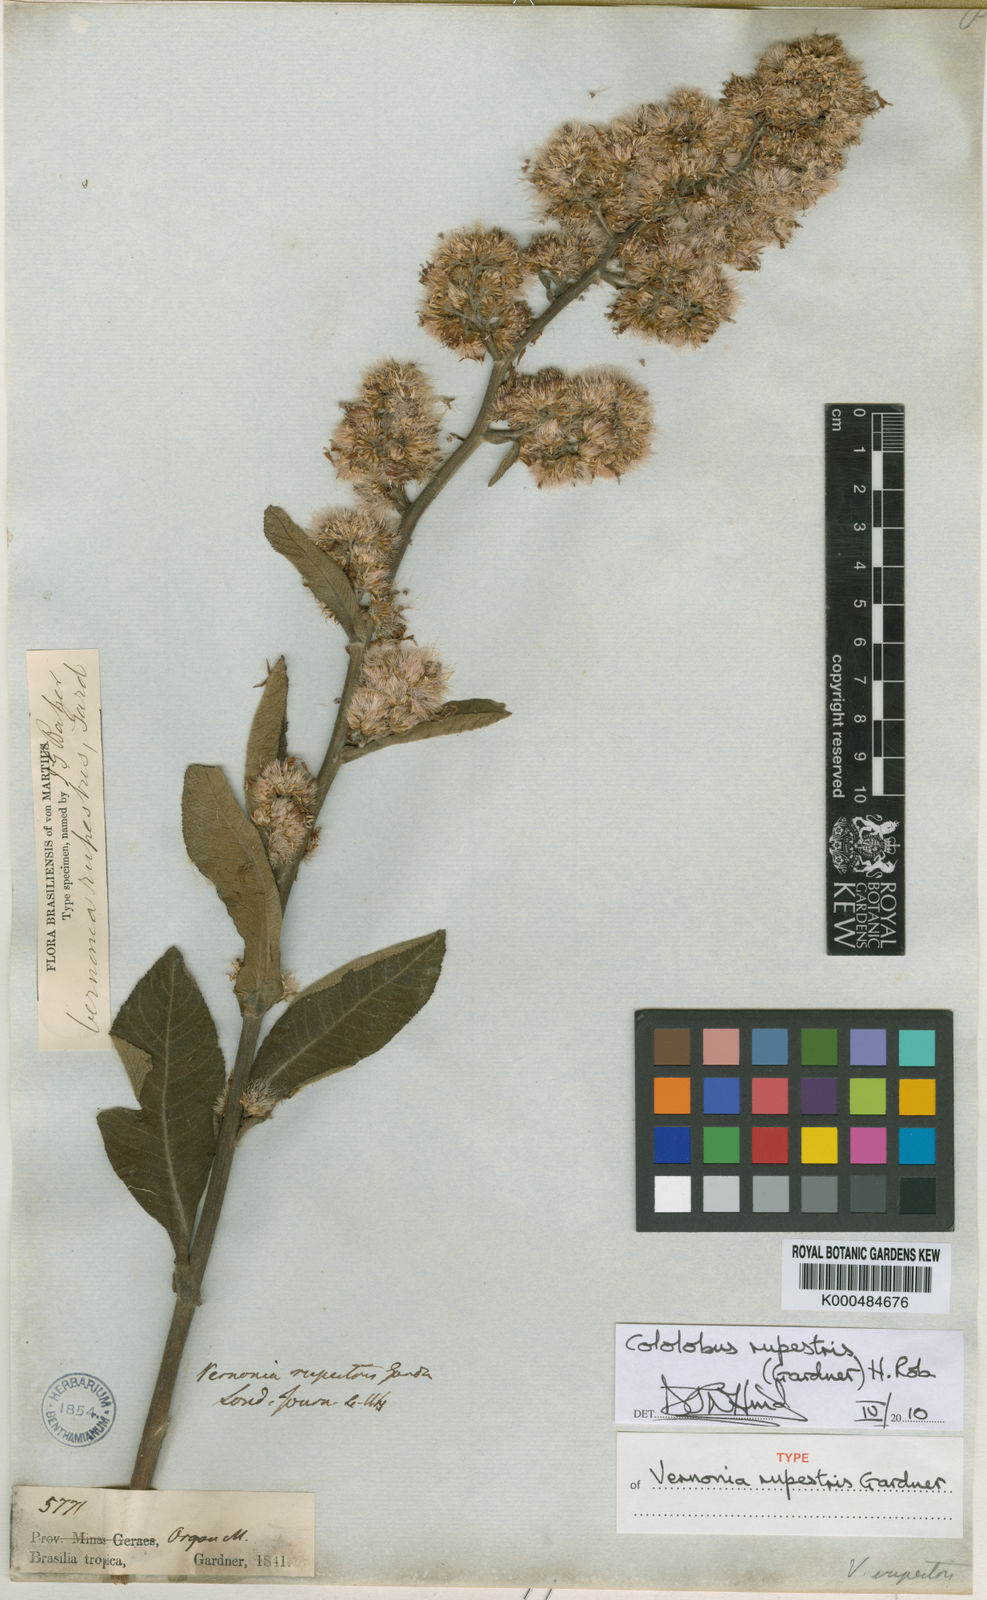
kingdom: Plantae
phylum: Tracheophyta
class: Magnoliopsida
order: Asterales
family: Asteraceae
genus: Cololobus
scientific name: Cololobus rupestris
